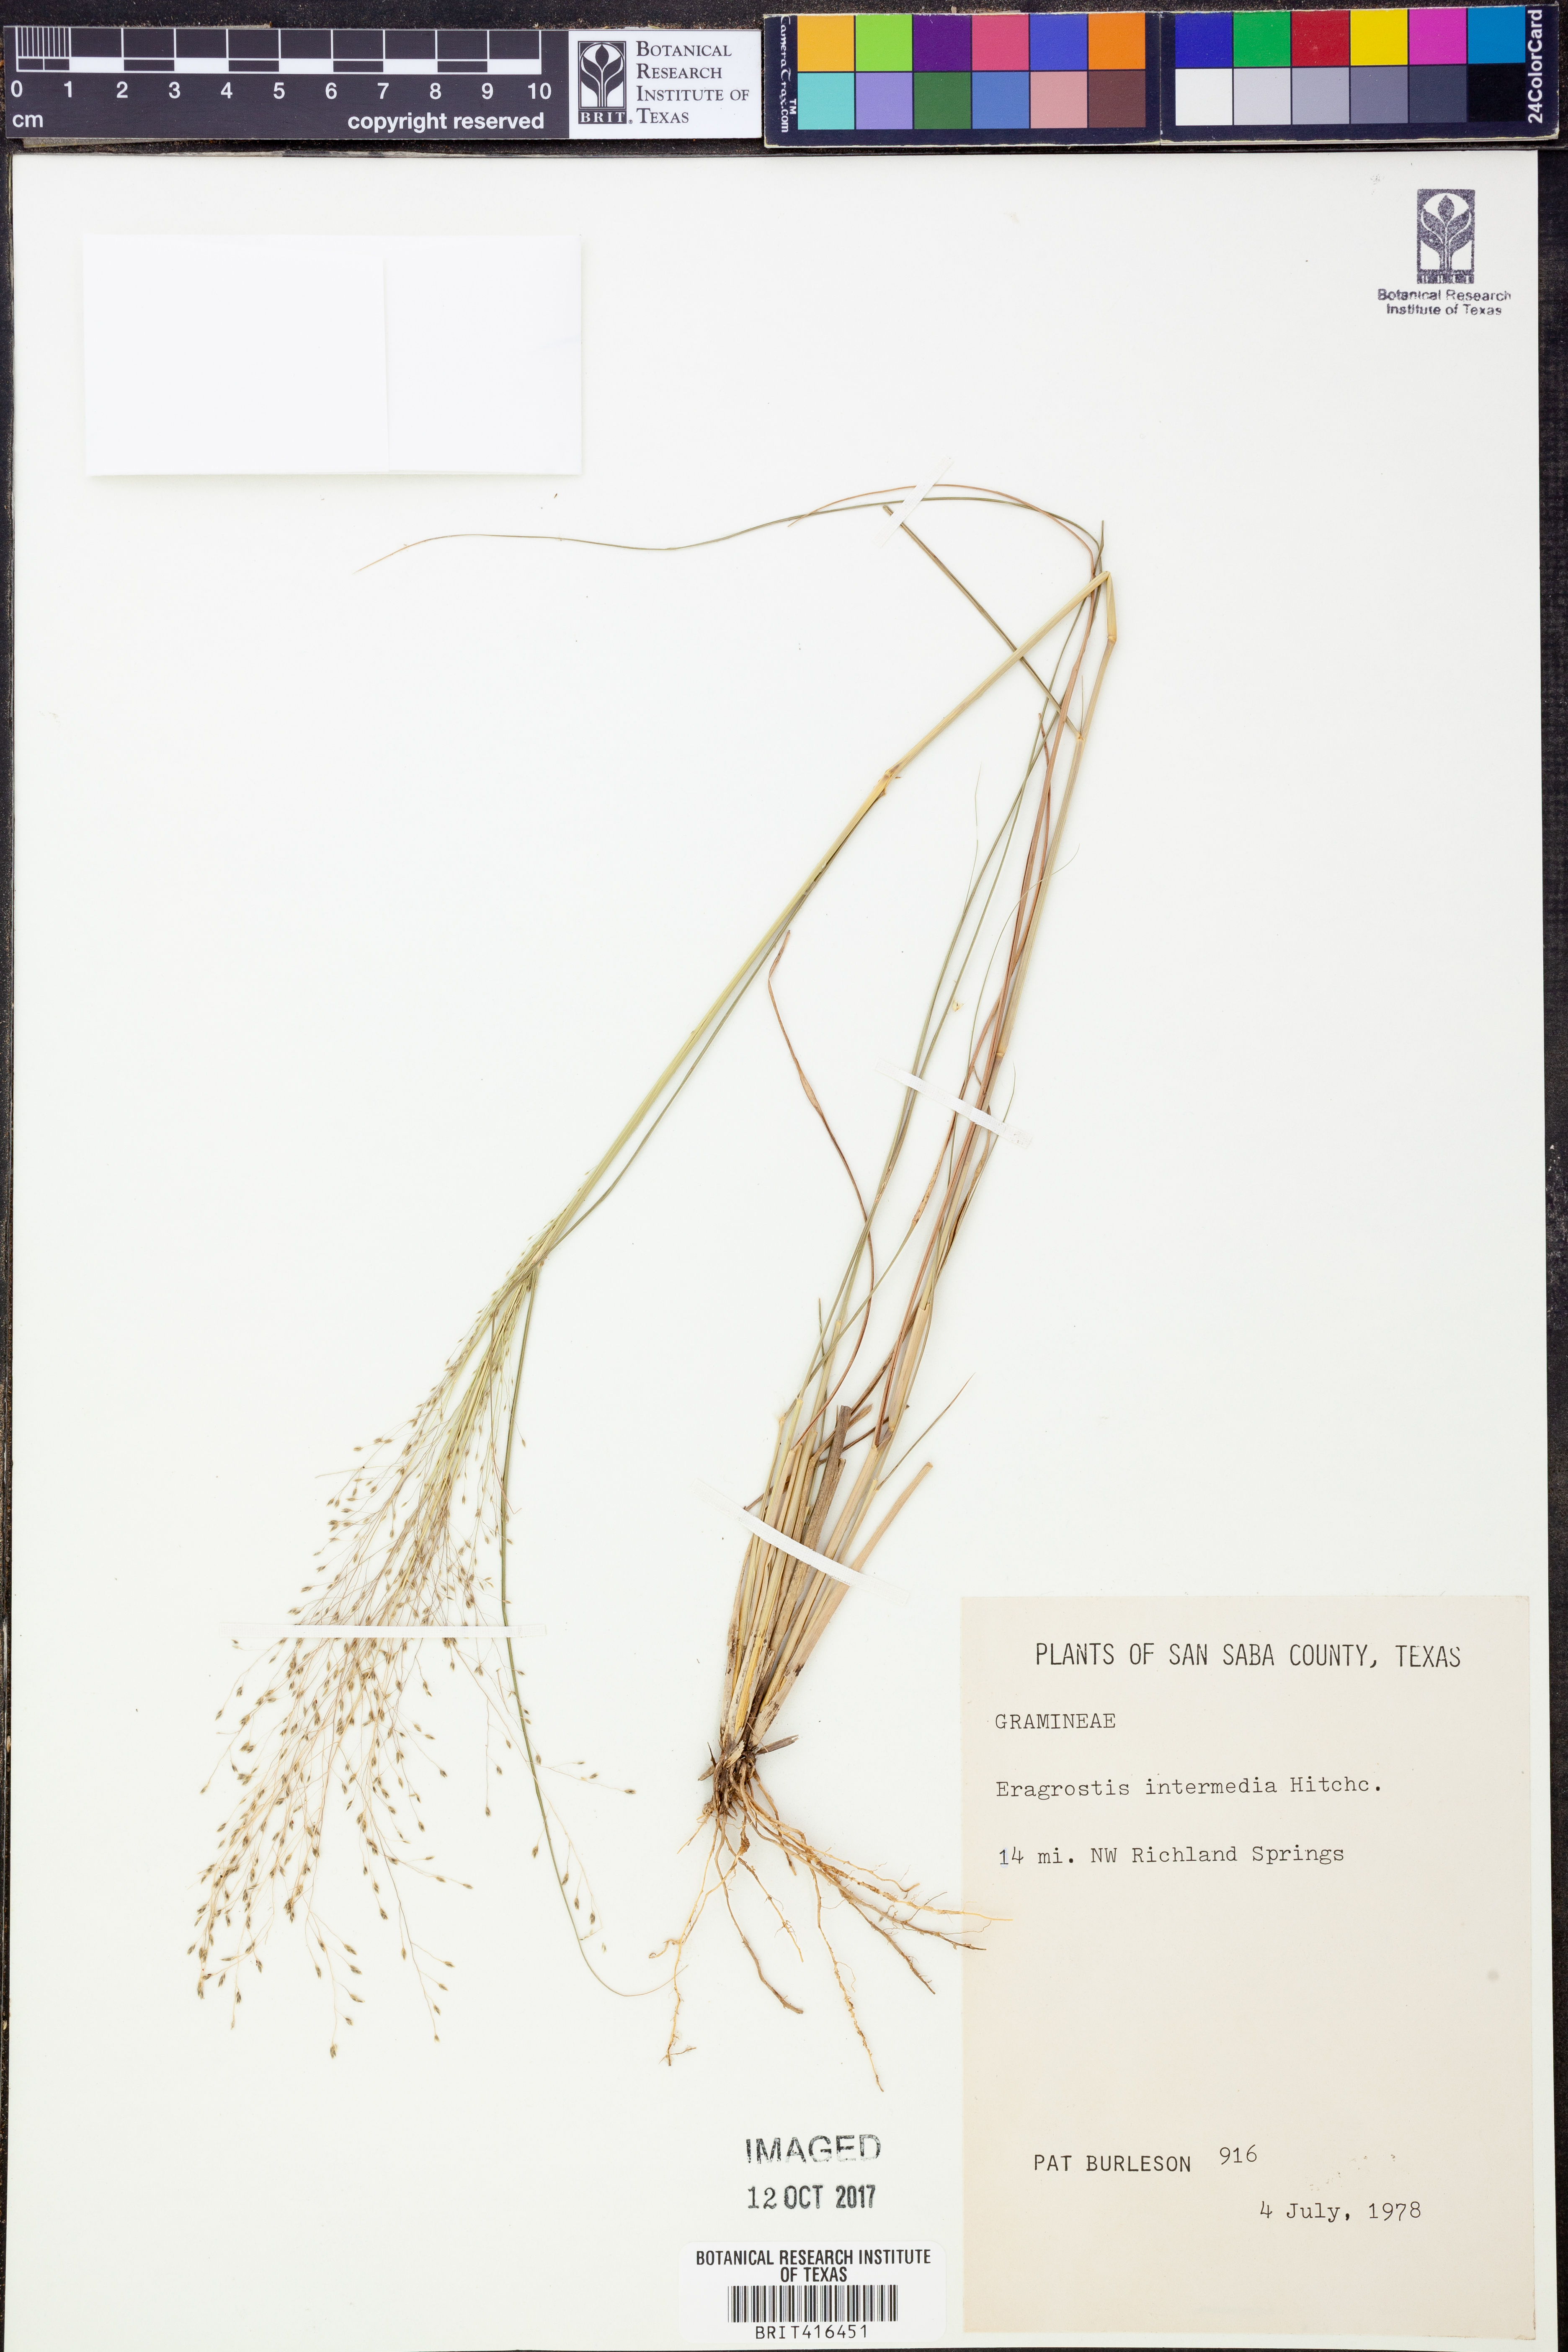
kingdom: Plantae
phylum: Tracheophyta
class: Liliopsida
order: Poales
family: Poaceae
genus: Eragrostis
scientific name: Eragrostis intermedia
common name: Plains love grass
